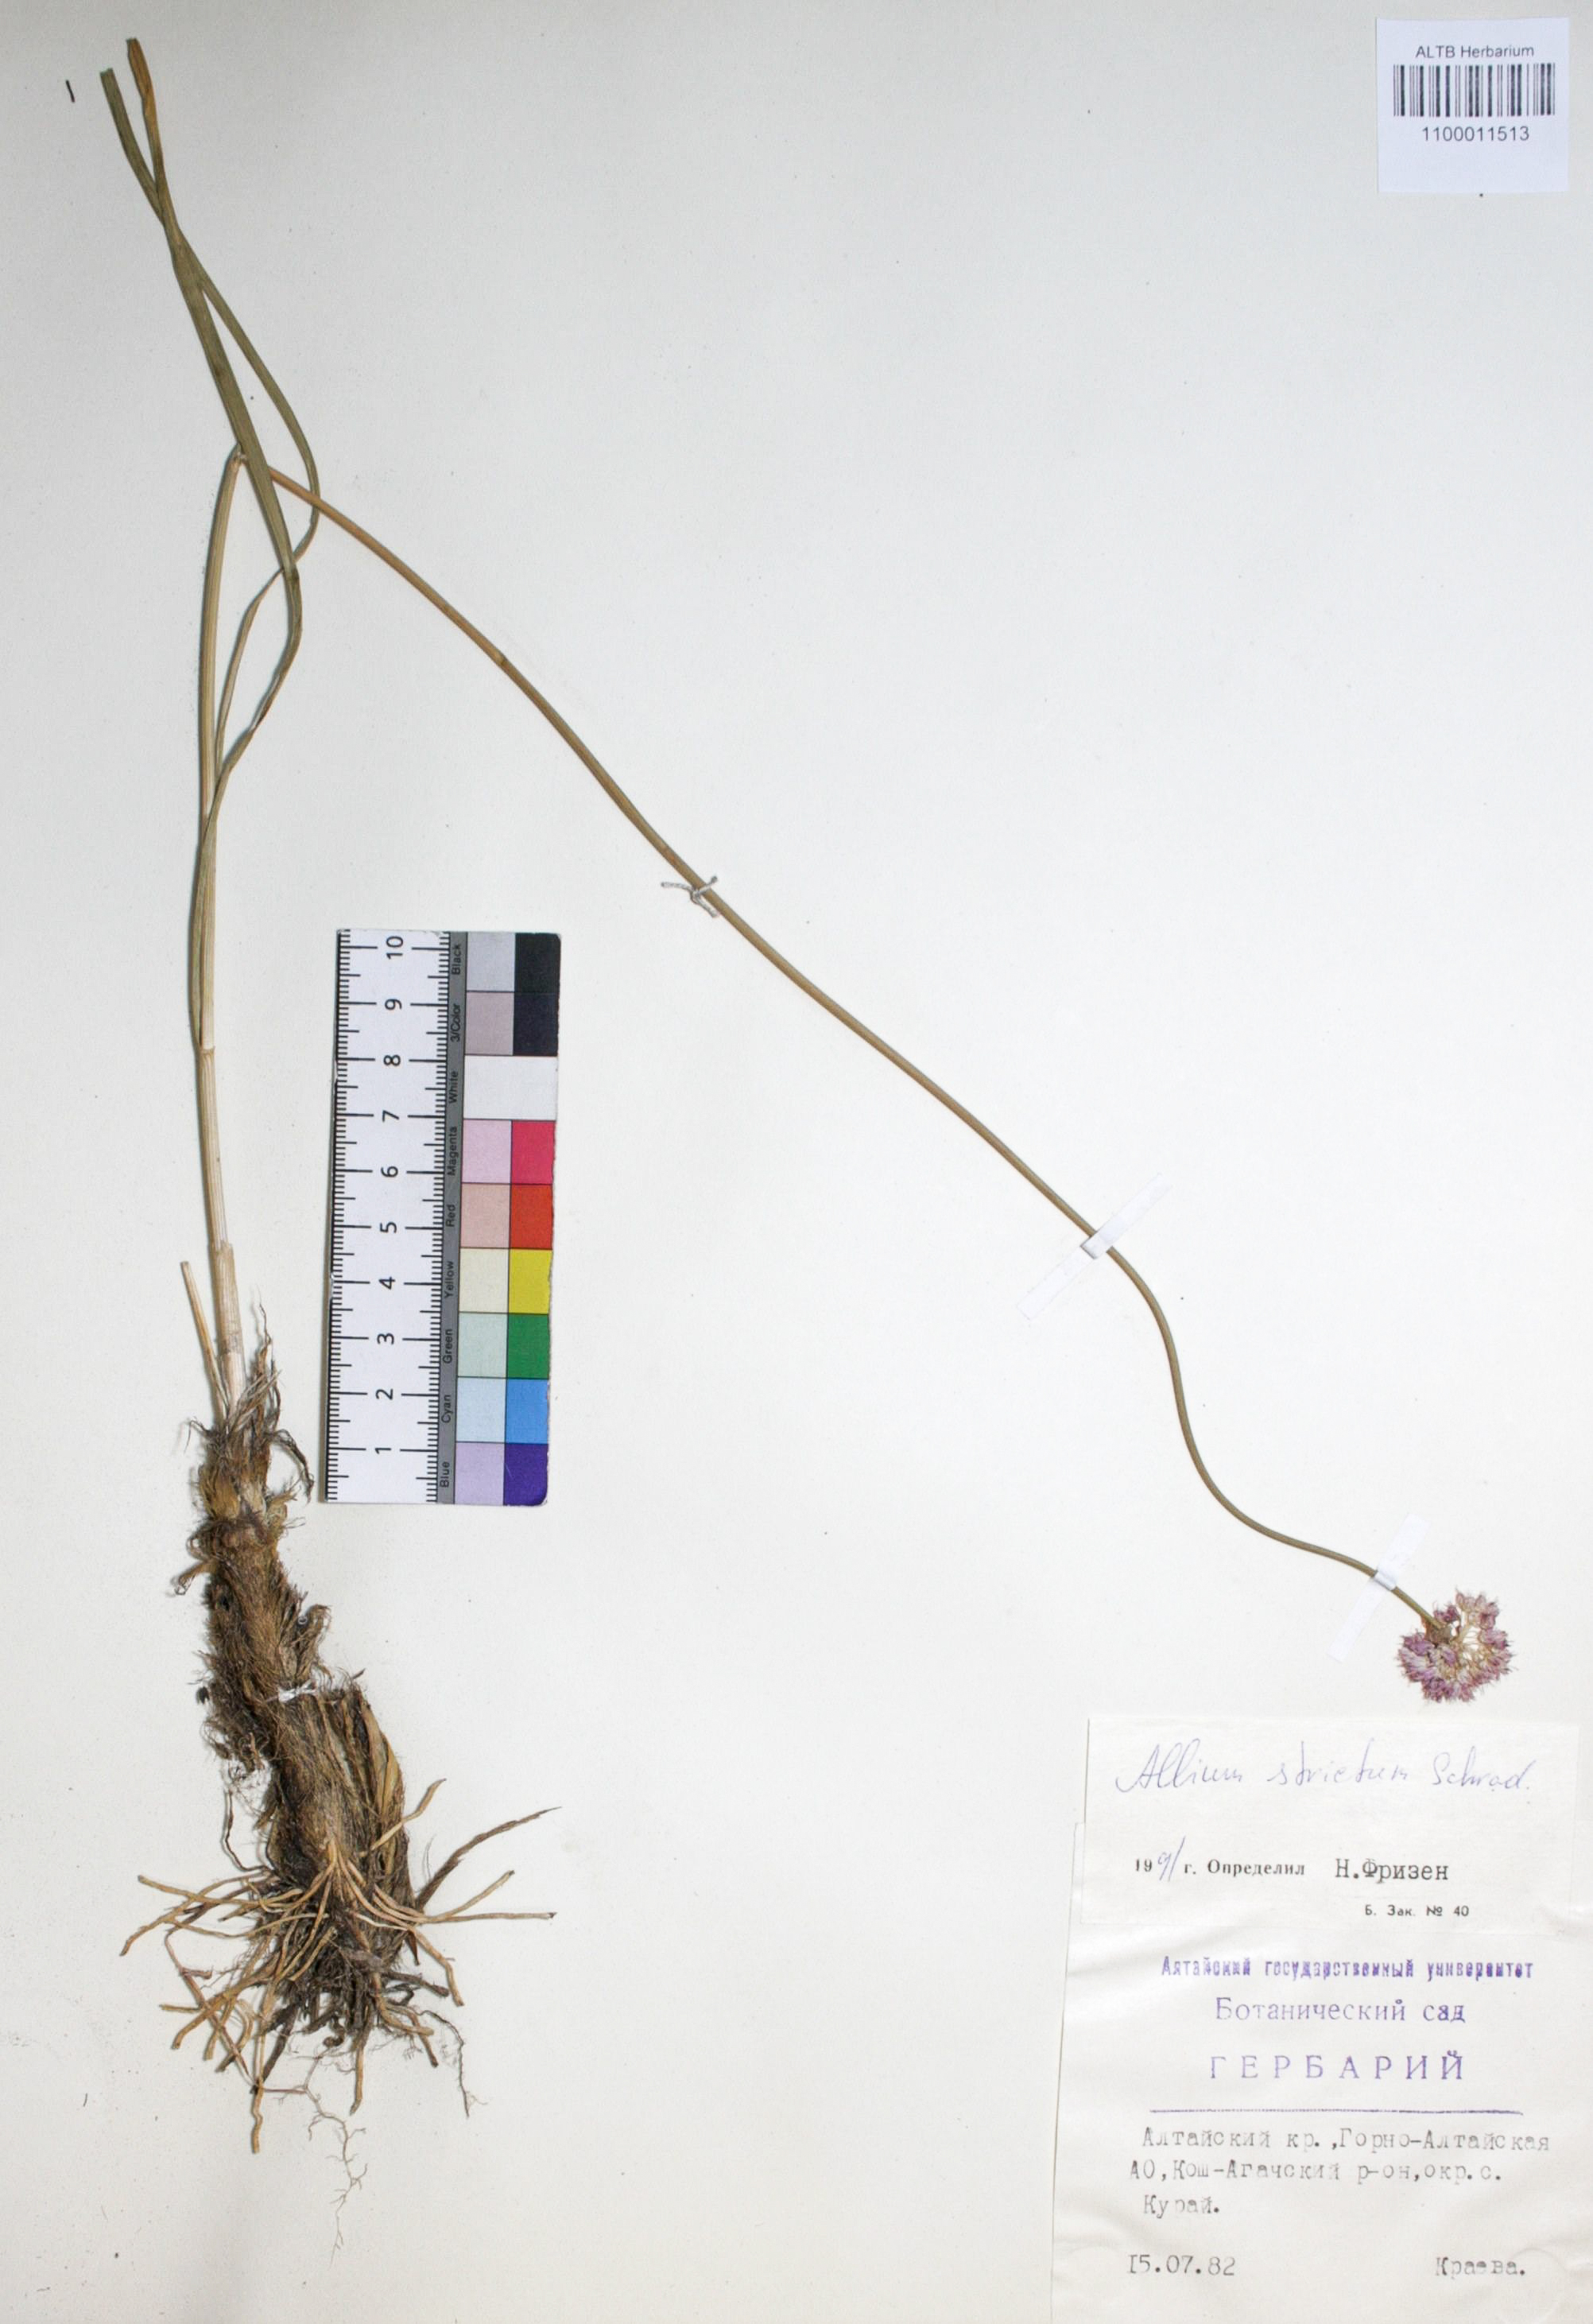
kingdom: Plantae
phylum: Tracheophyta
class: Liliopsida
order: Asparagales
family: Amaryllidaceae
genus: Allium
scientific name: Allium strictum
